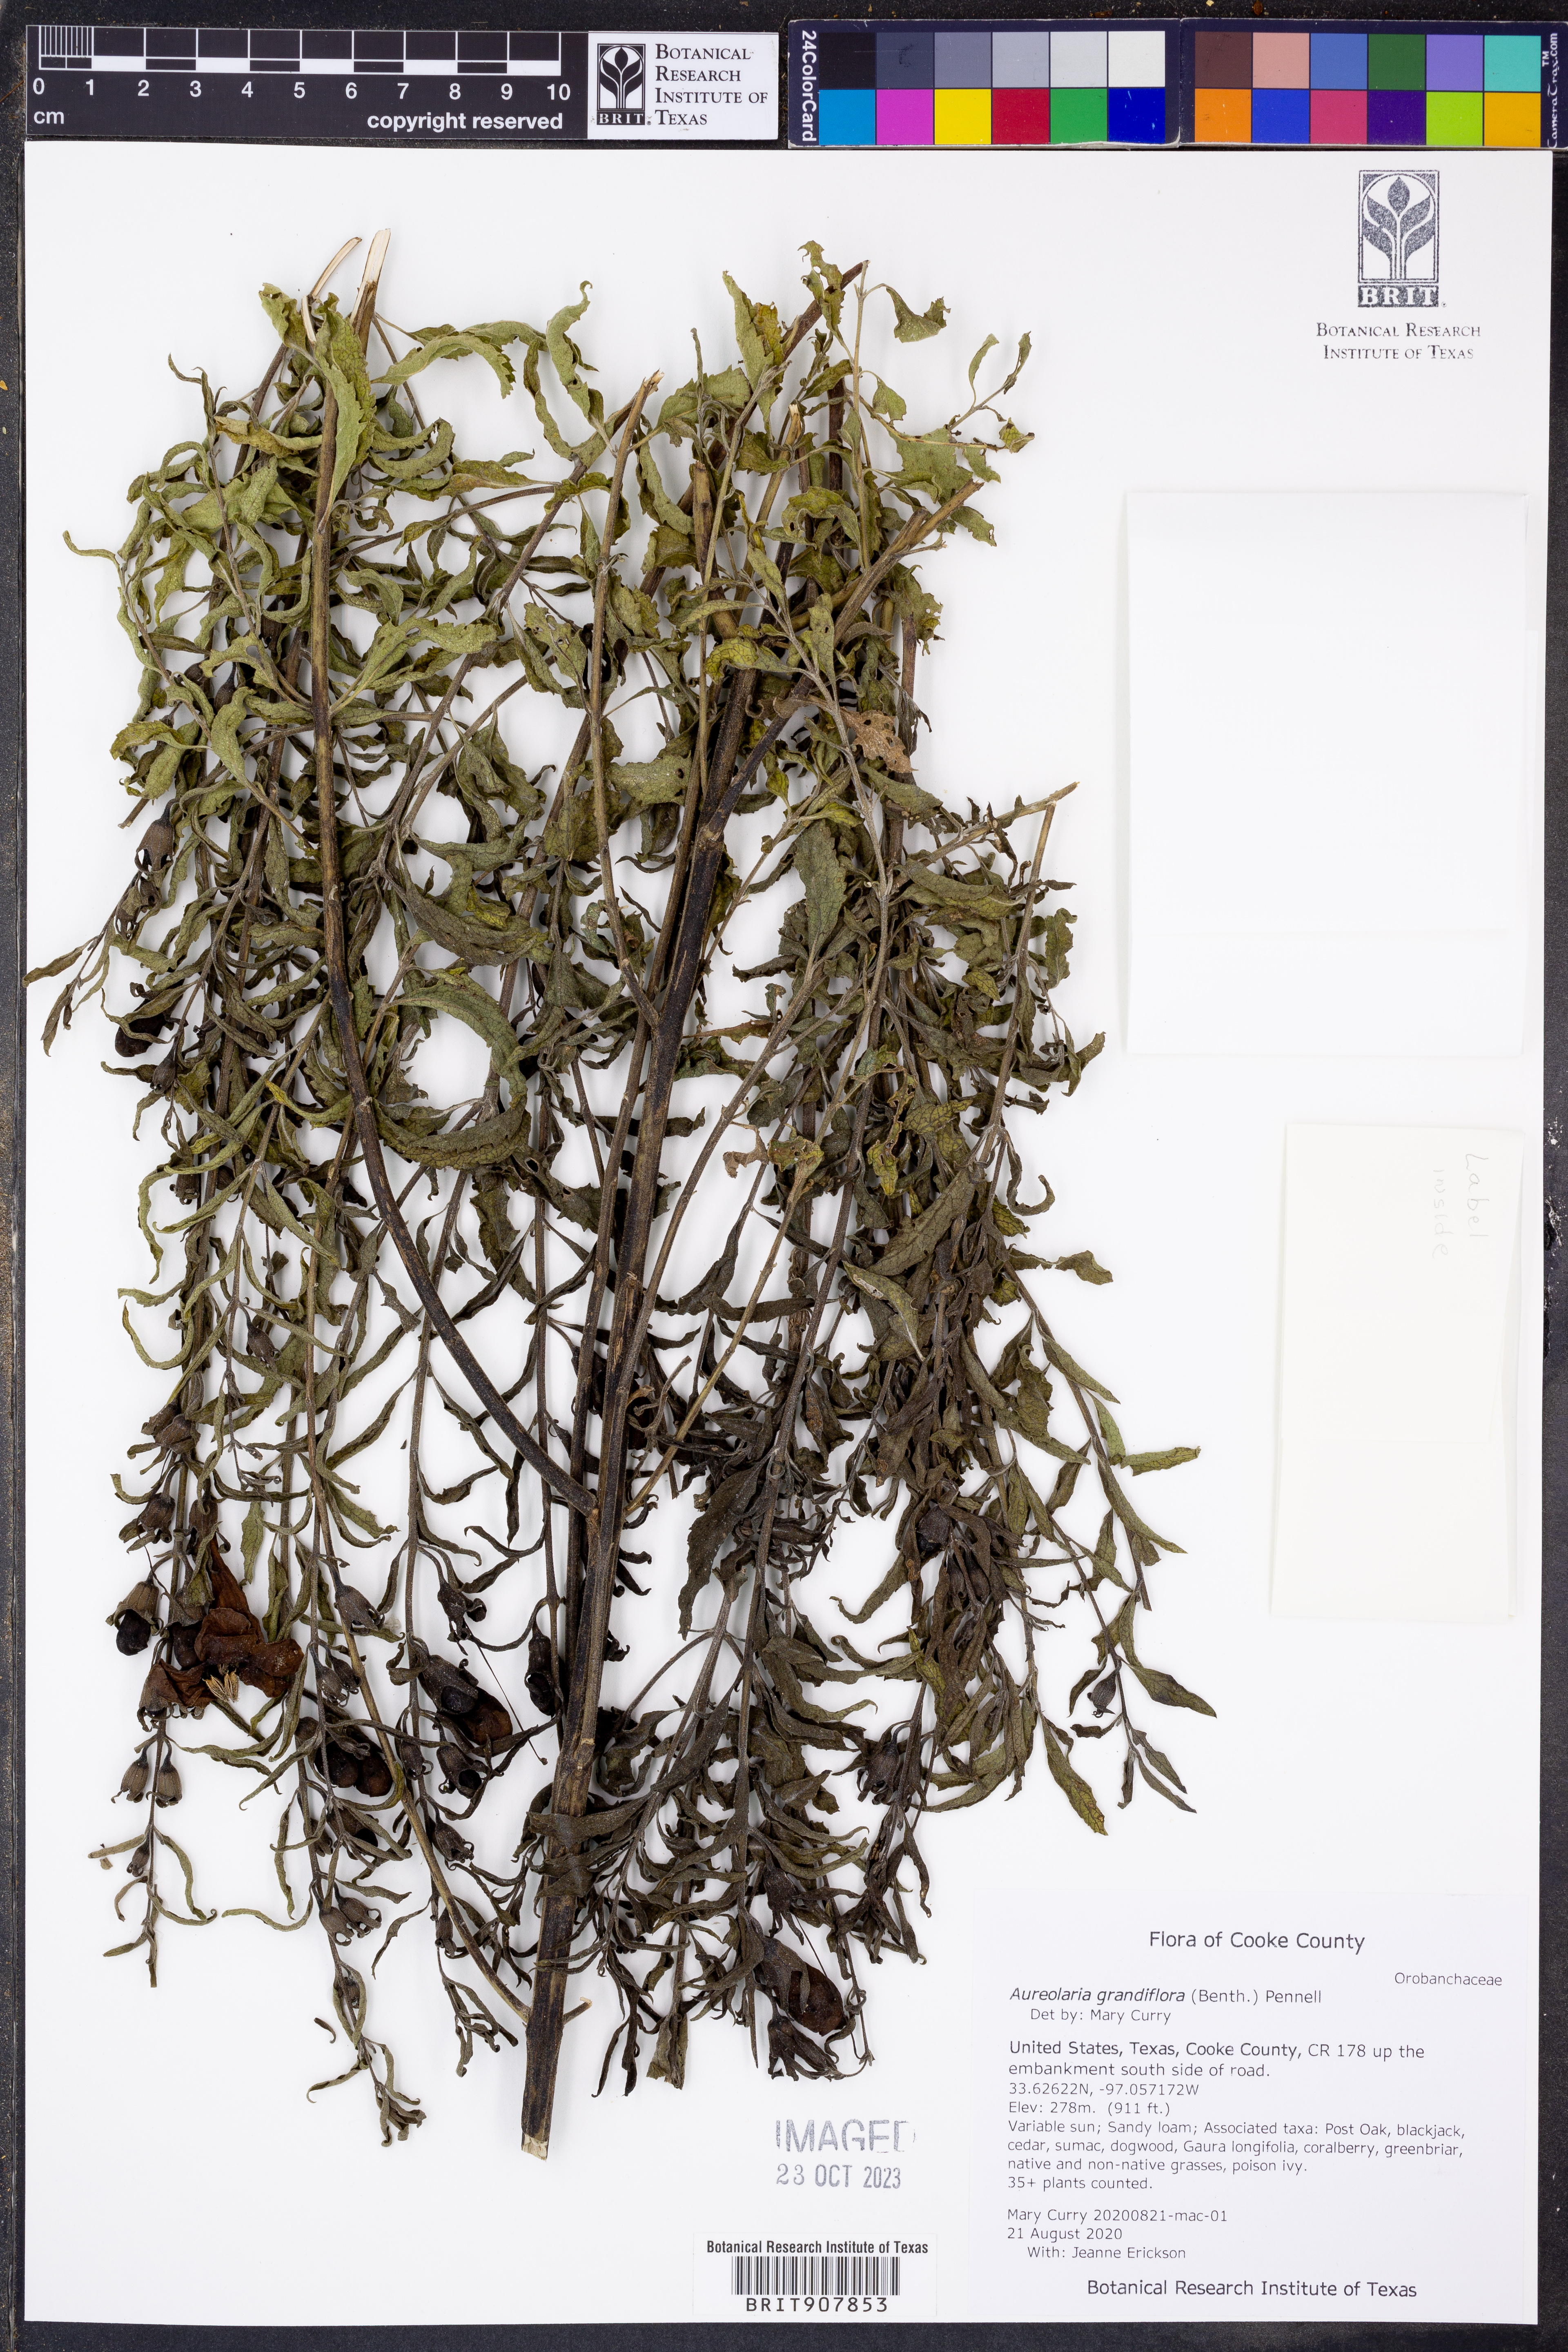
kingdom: Plantae
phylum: Tracheophyta
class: Magnoliopsida
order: Lamiales
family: Orobanchaceae
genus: Aureolaria
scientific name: Aureolaria grandiflora
